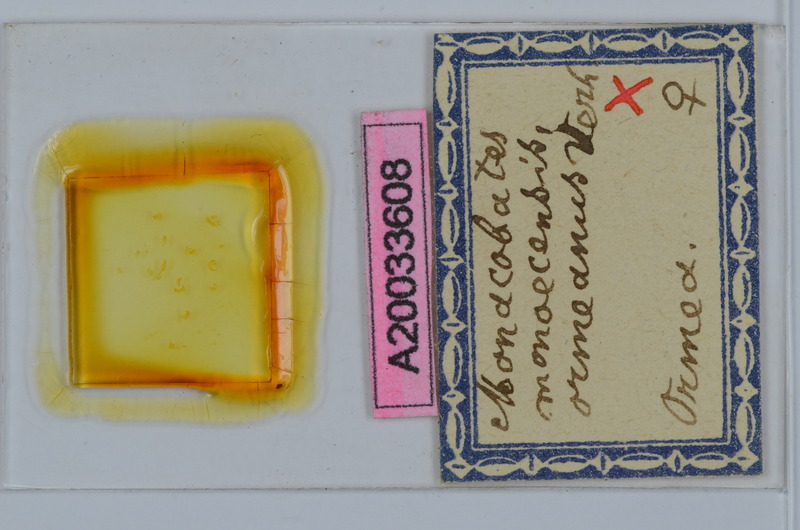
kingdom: Animalia
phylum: Arthropoda
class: Diplopoda
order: Julida
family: Blaniulidae
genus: Monacobates
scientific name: Monacobates monoecensis
